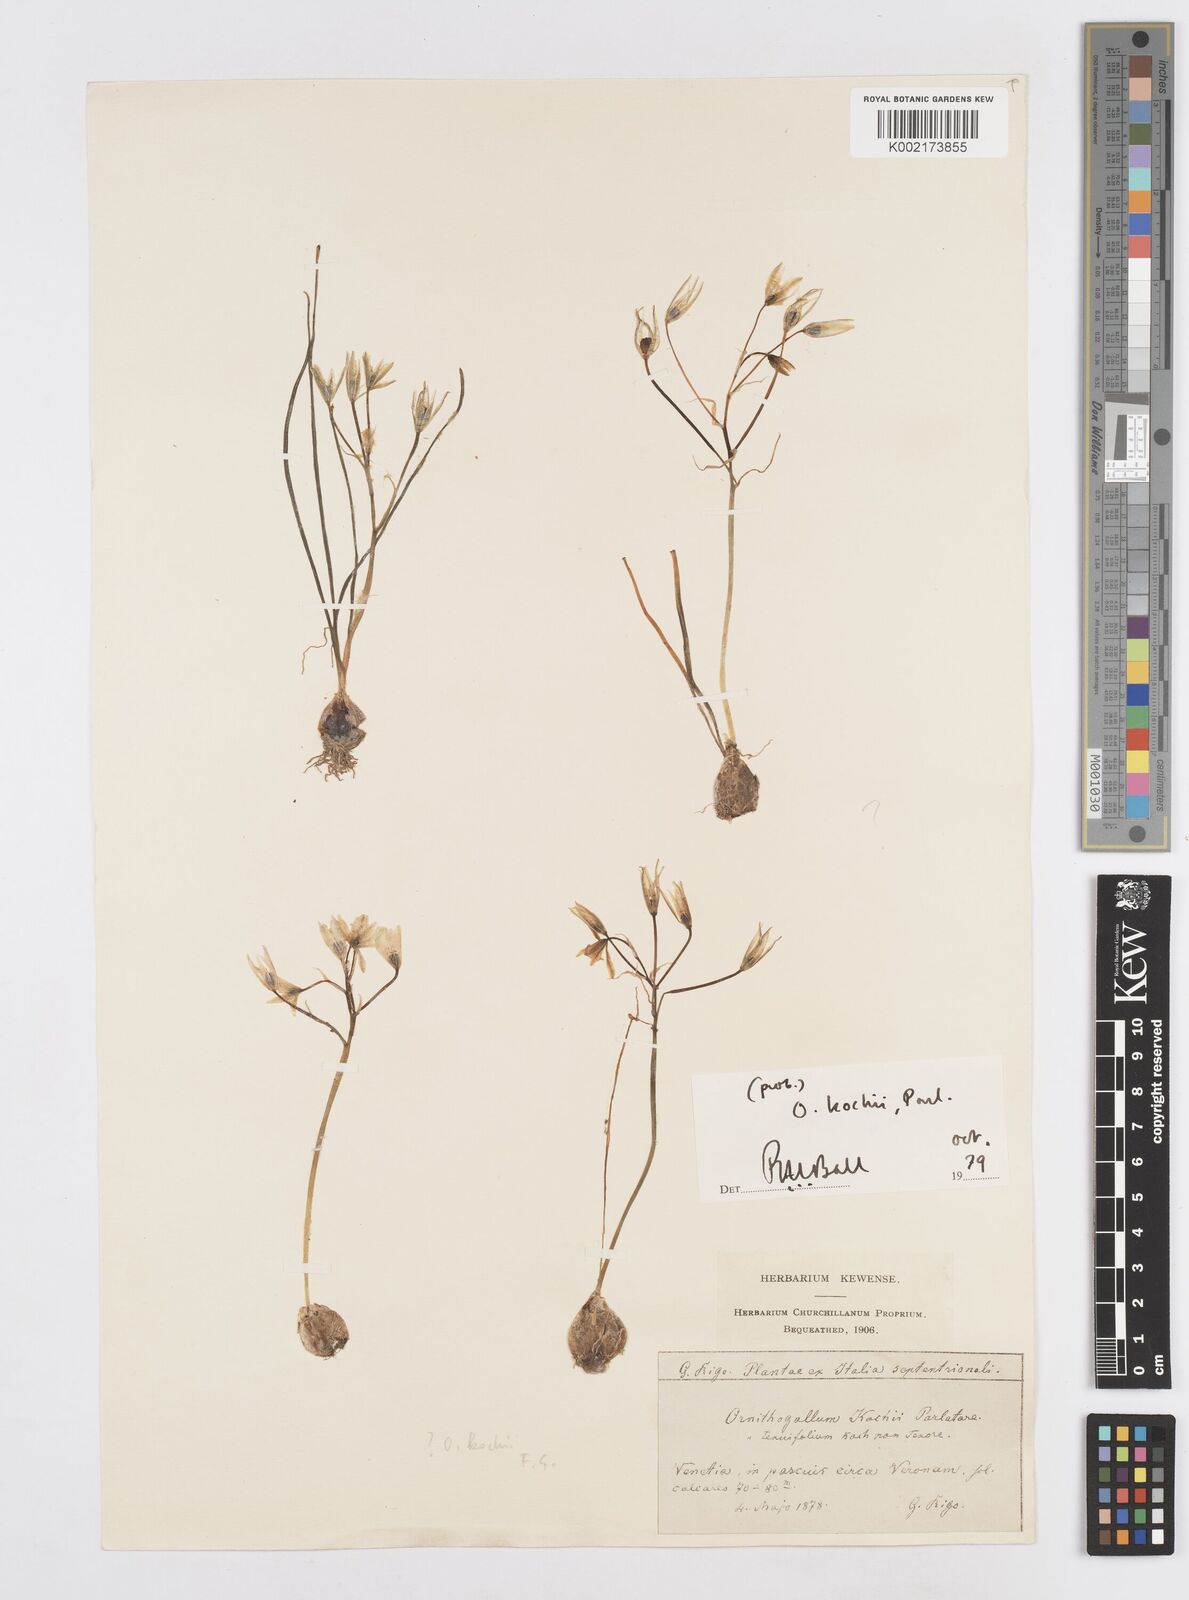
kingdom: Plantae
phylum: Tracheophyta
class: Liliopsida
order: Asparagales
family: Asparagaceae
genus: Ornithogalum
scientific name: Ornithogalum orthophyllum
